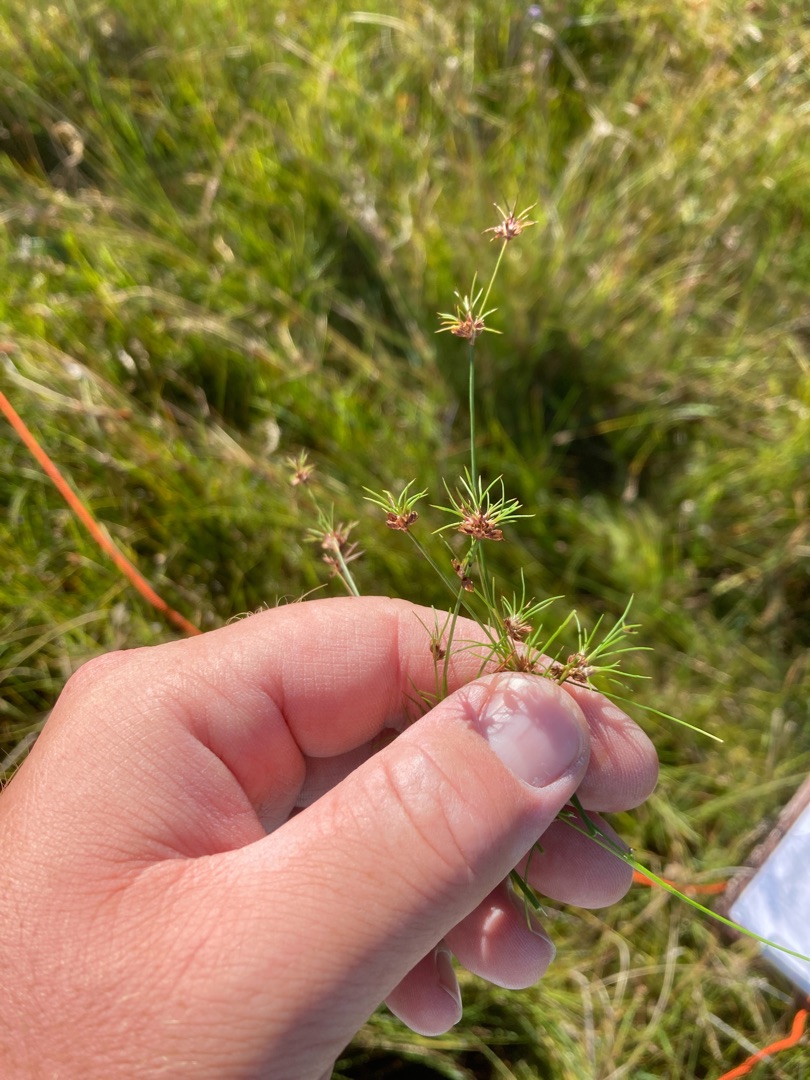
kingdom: Plantae
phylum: Tracheophyta
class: Liliopsida
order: Poales
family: Juncaceae
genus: Juncus
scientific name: Juncus bulbosus
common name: Liden siv
